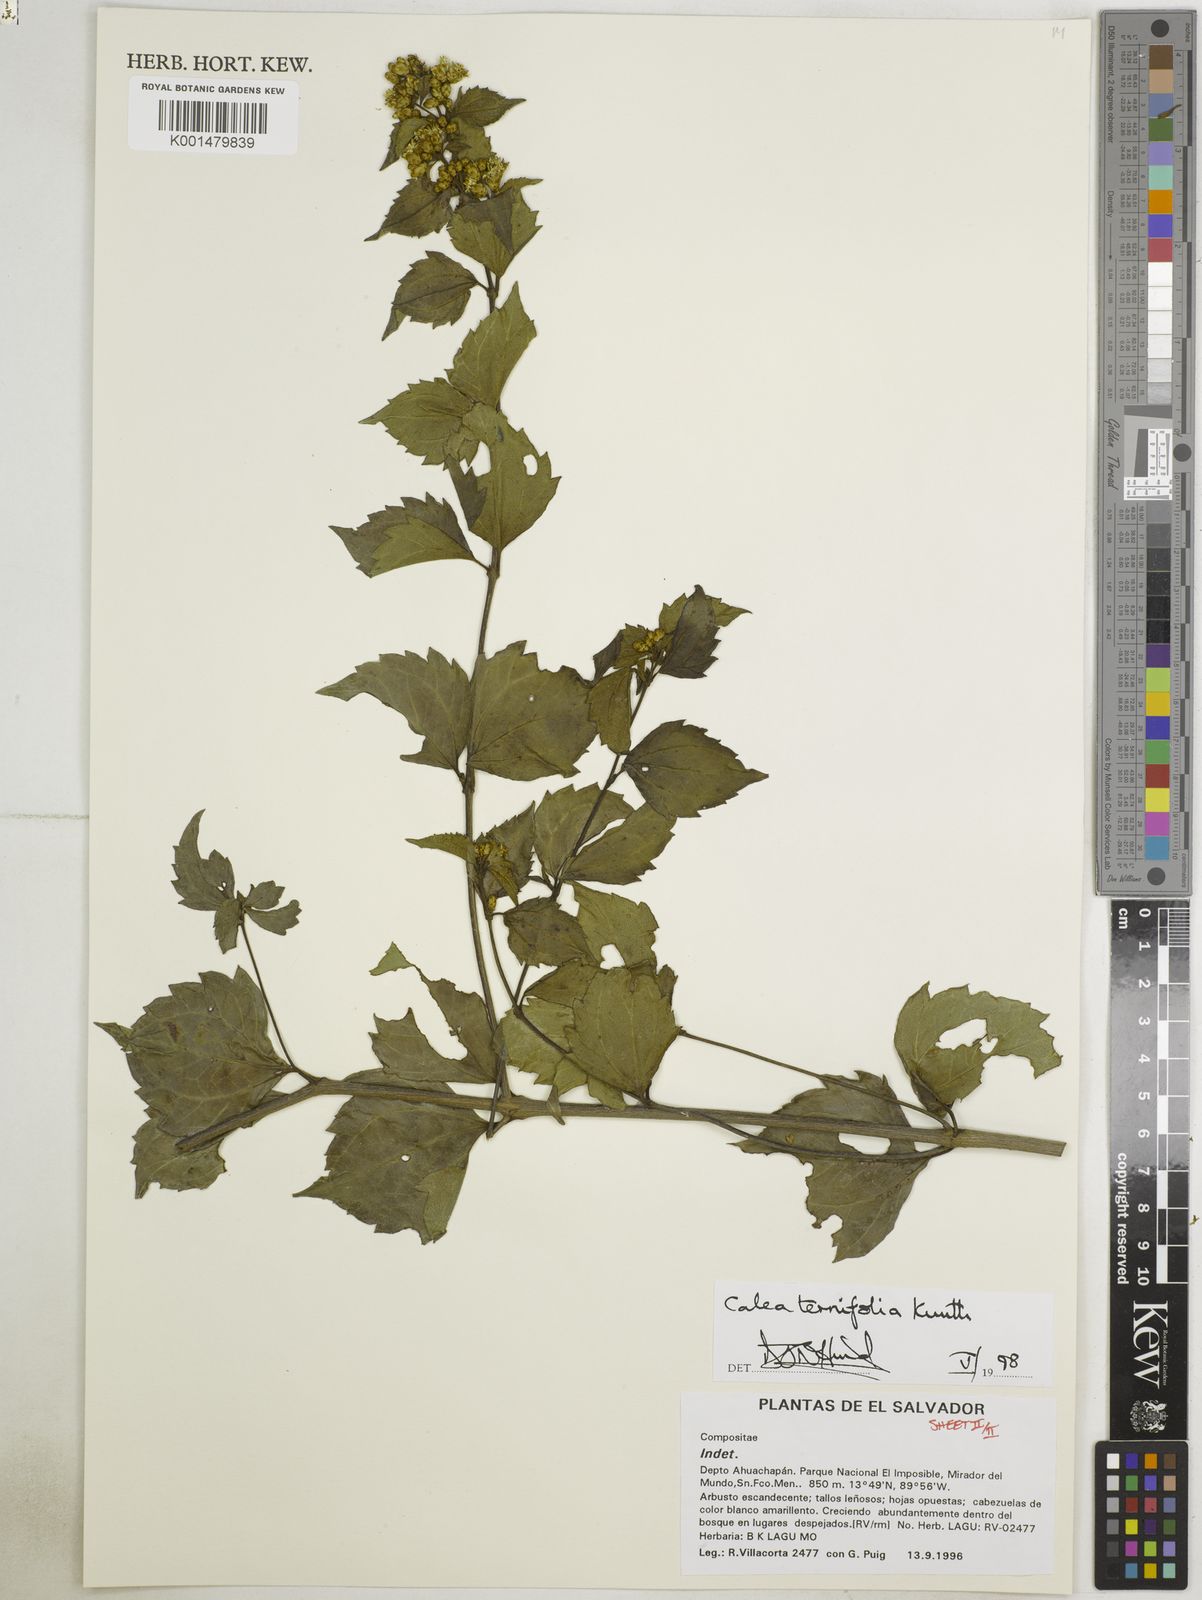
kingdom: Plantae
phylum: Tracheophyta
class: Magnoliopsida
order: Asterales
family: Asteraceae
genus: Calea
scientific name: Calea ternifolia
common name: Mexican calea
